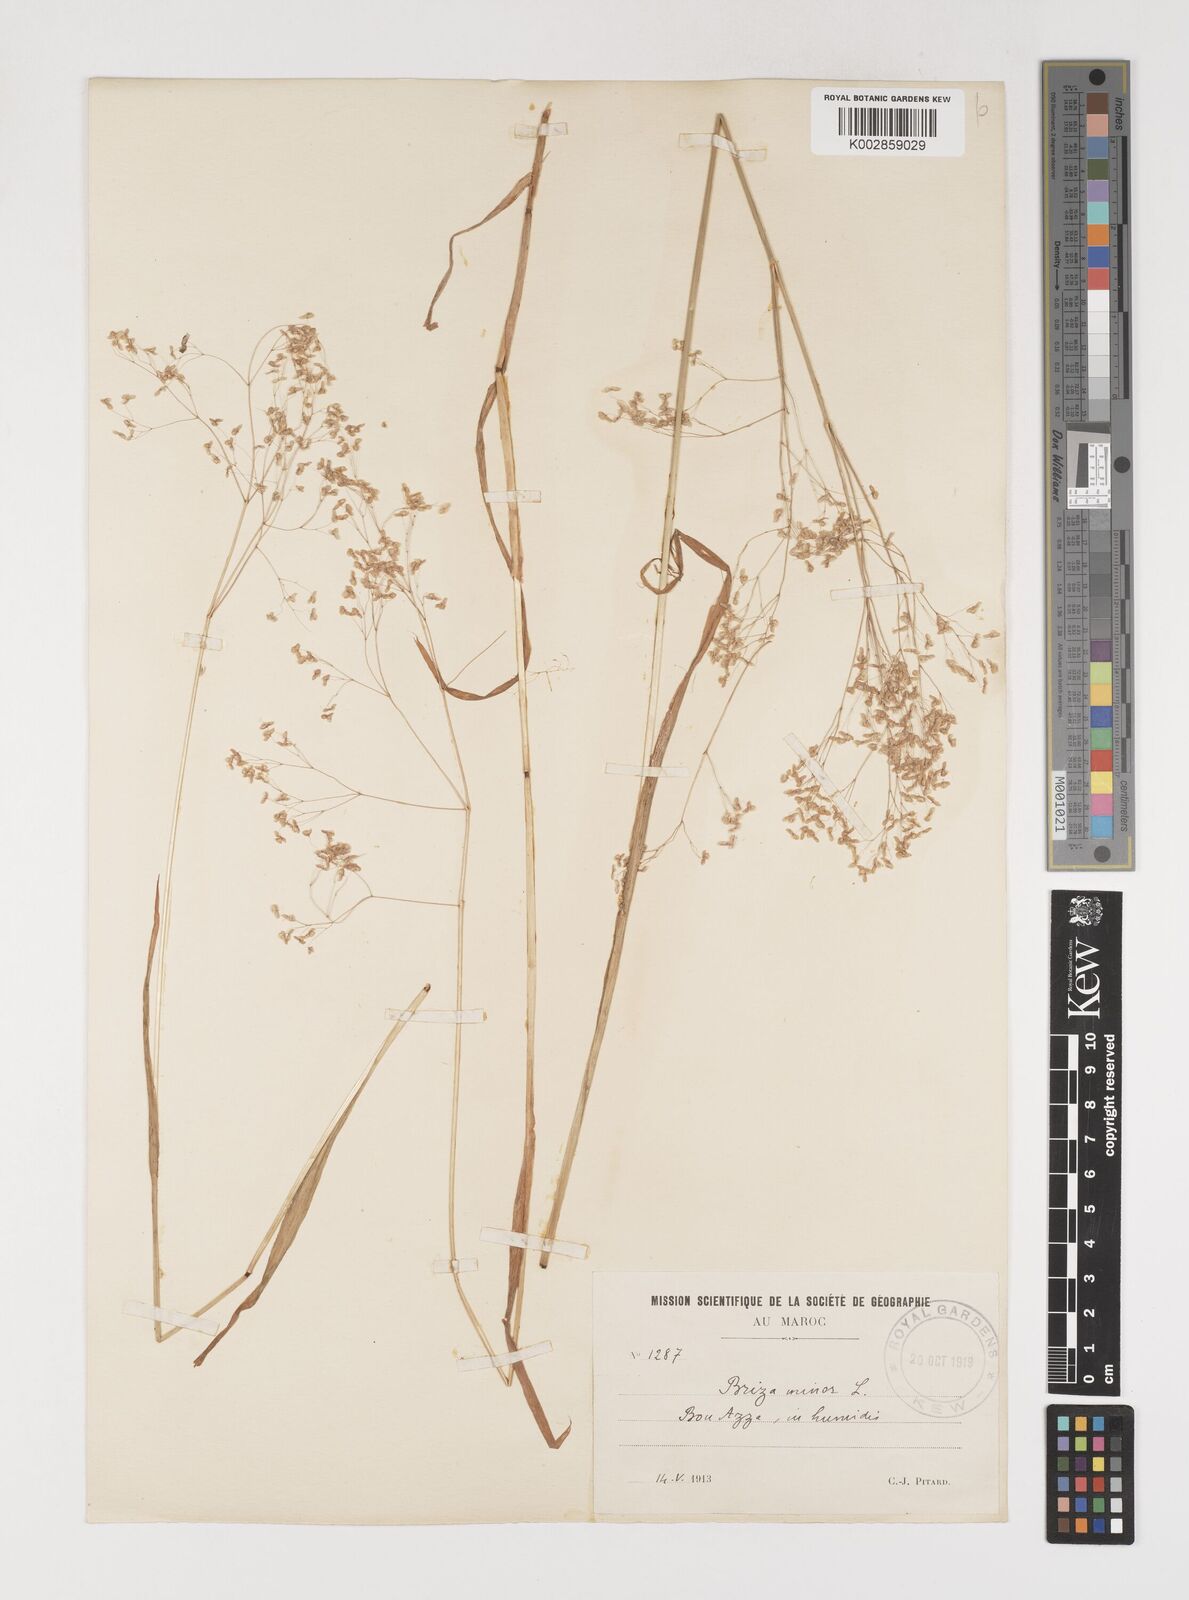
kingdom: Plantae
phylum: Tracheophyta
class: Liliopsida
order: Poales
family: Poaceae
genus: Briza
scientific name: Briza minor
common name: Lesser quaking-grass
